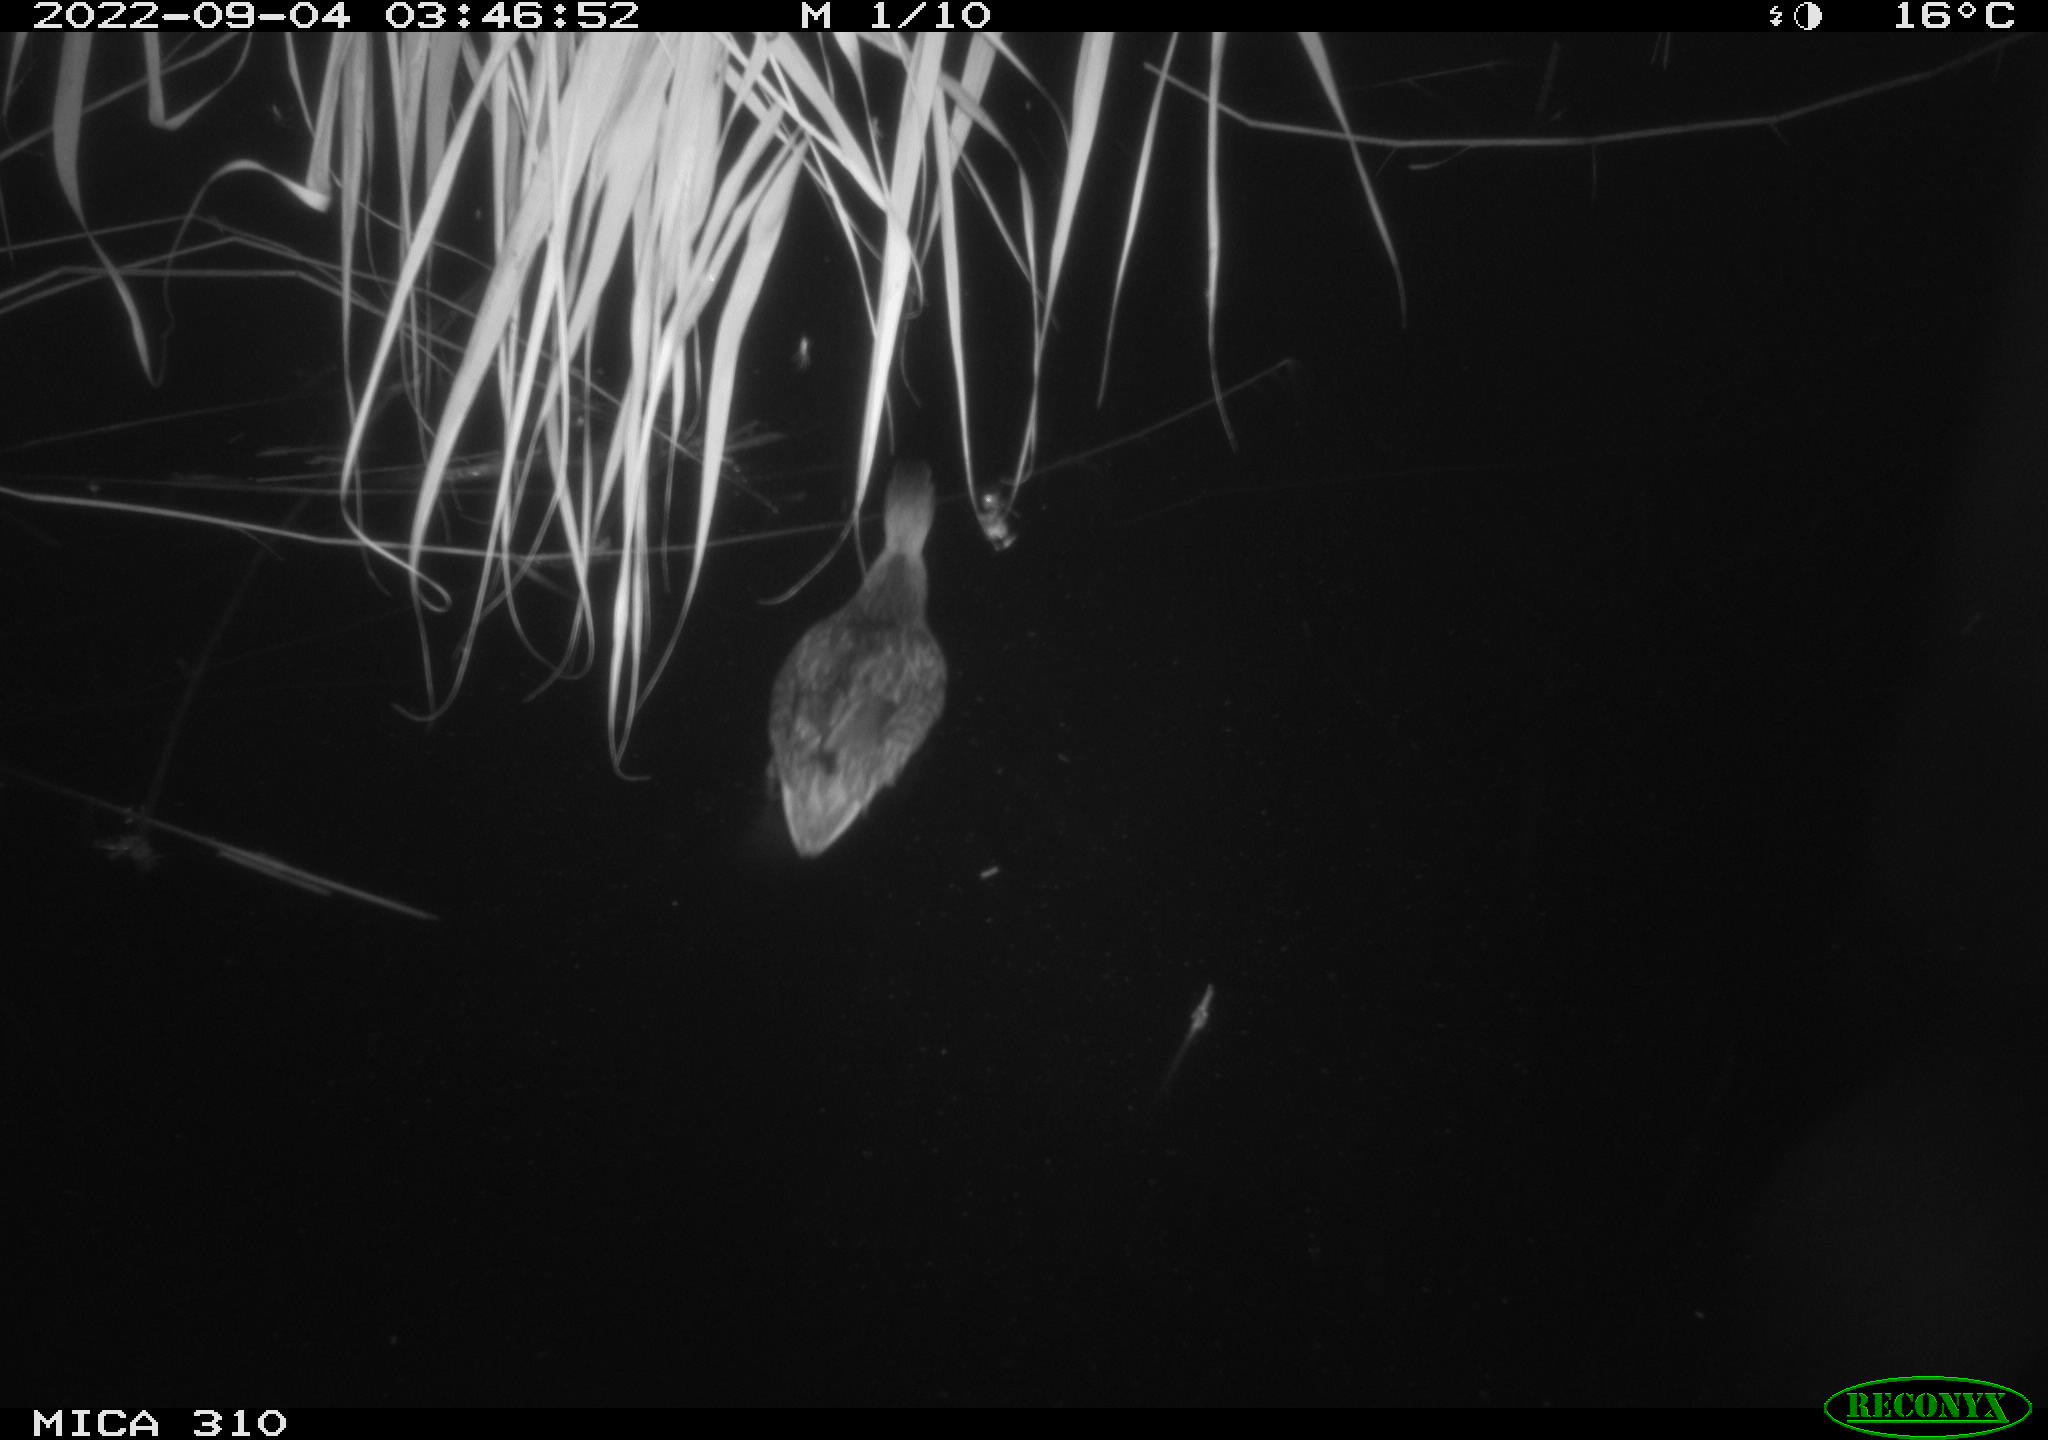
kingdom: Animalia
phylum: Chordata
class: Aves
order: Anseriformes
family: Anatidae
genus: Anas
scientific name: Anas platyrhynchos
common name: Mallard
